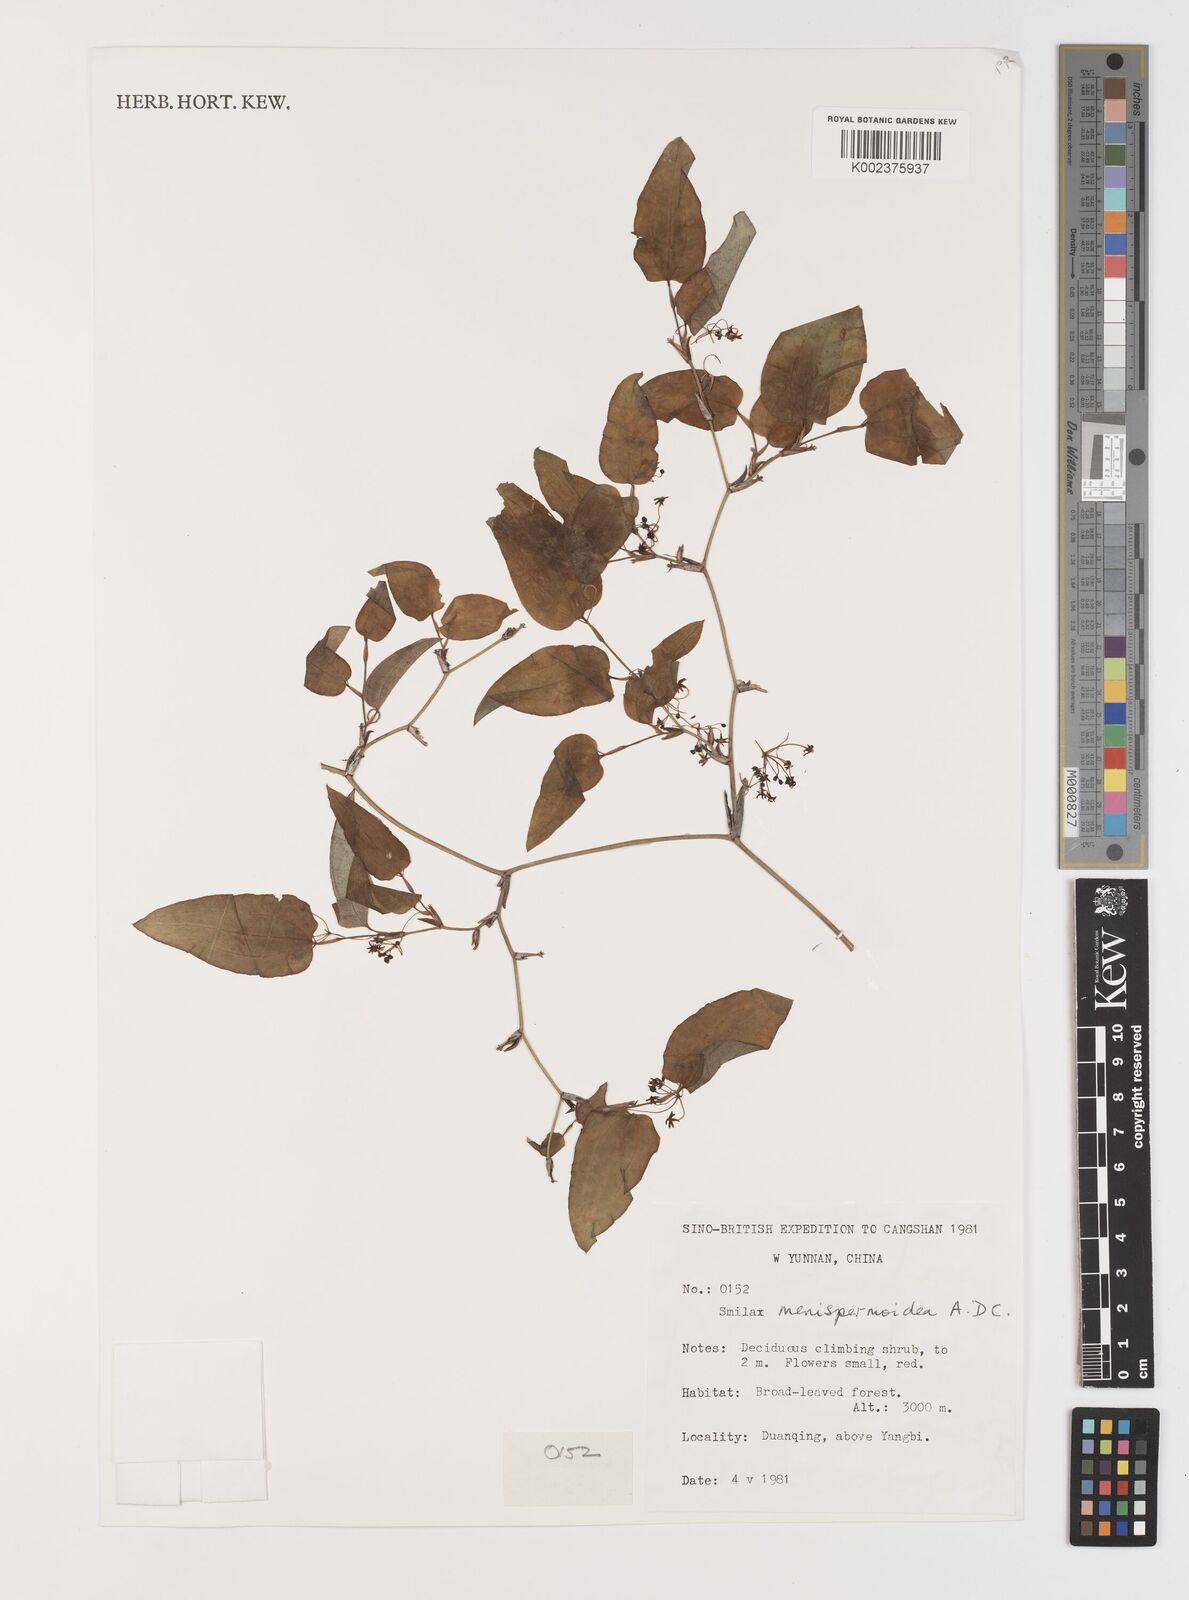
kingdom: Plantae
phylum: Tracheophyta
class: Liliopsida
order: Liliales
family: Smilacaceae
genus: Smilax
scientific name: Smilax menispermoidea
